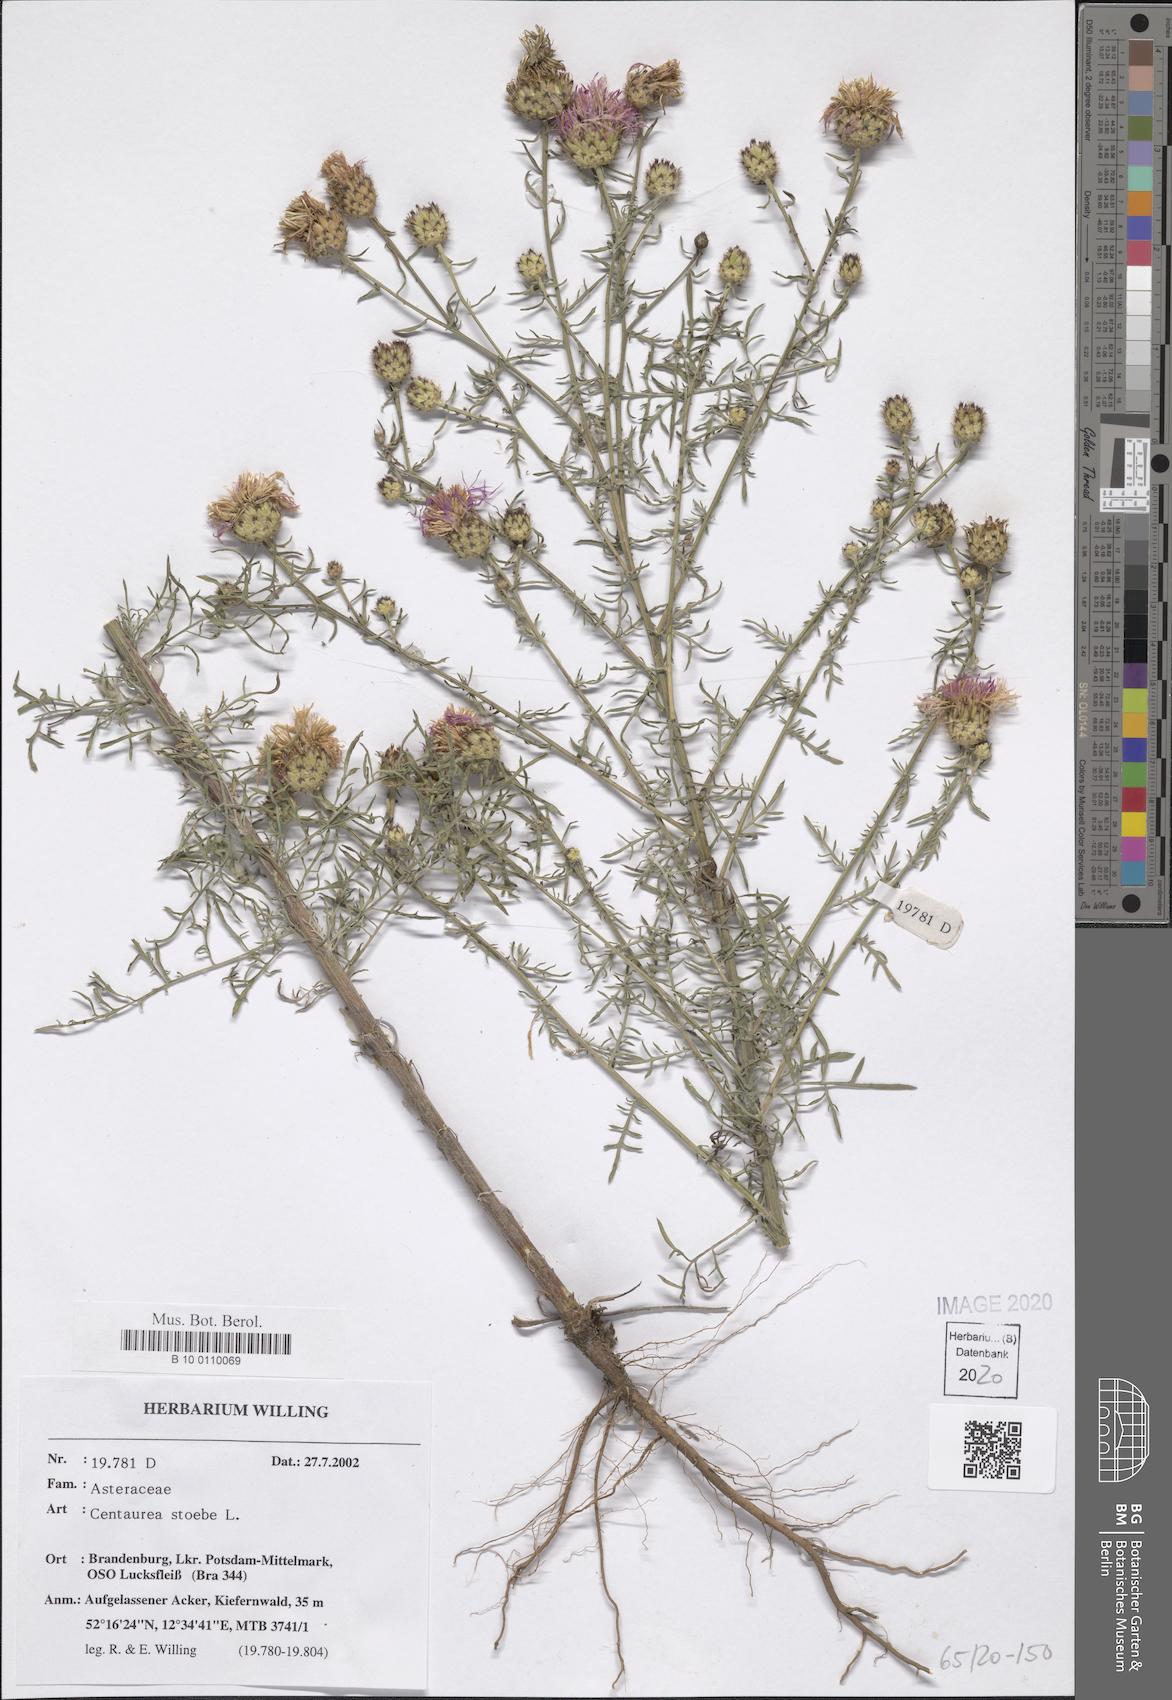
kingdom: Plantae
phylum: Tracheophyta
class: Magnoliopsida
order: Asterales
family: Asteraceae
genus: Centaurea
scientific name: Centaurea stoebe
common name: Spotted knapweed
